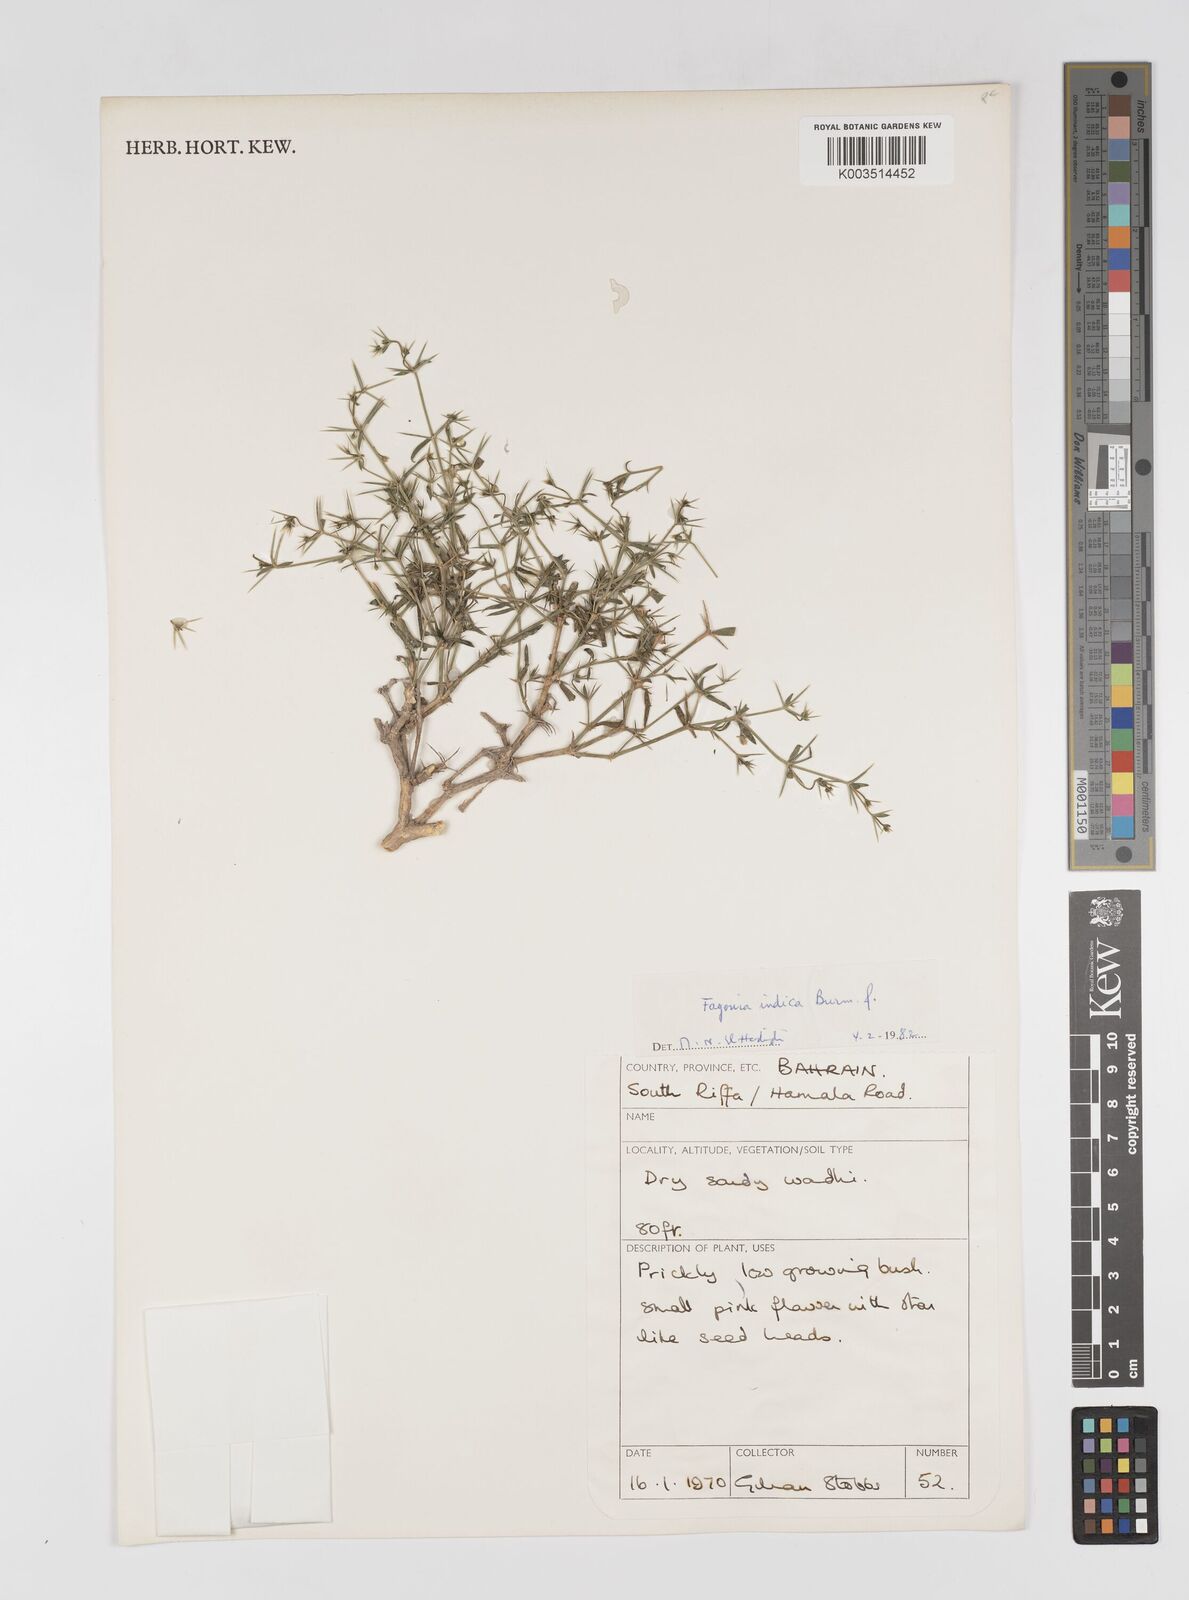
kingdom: Plantae
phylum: Tracheophyta
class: Magnoliopsida
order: Zygophyllales
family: Zygophyllaceae
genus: Fagonia
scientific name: Fagonia indica
